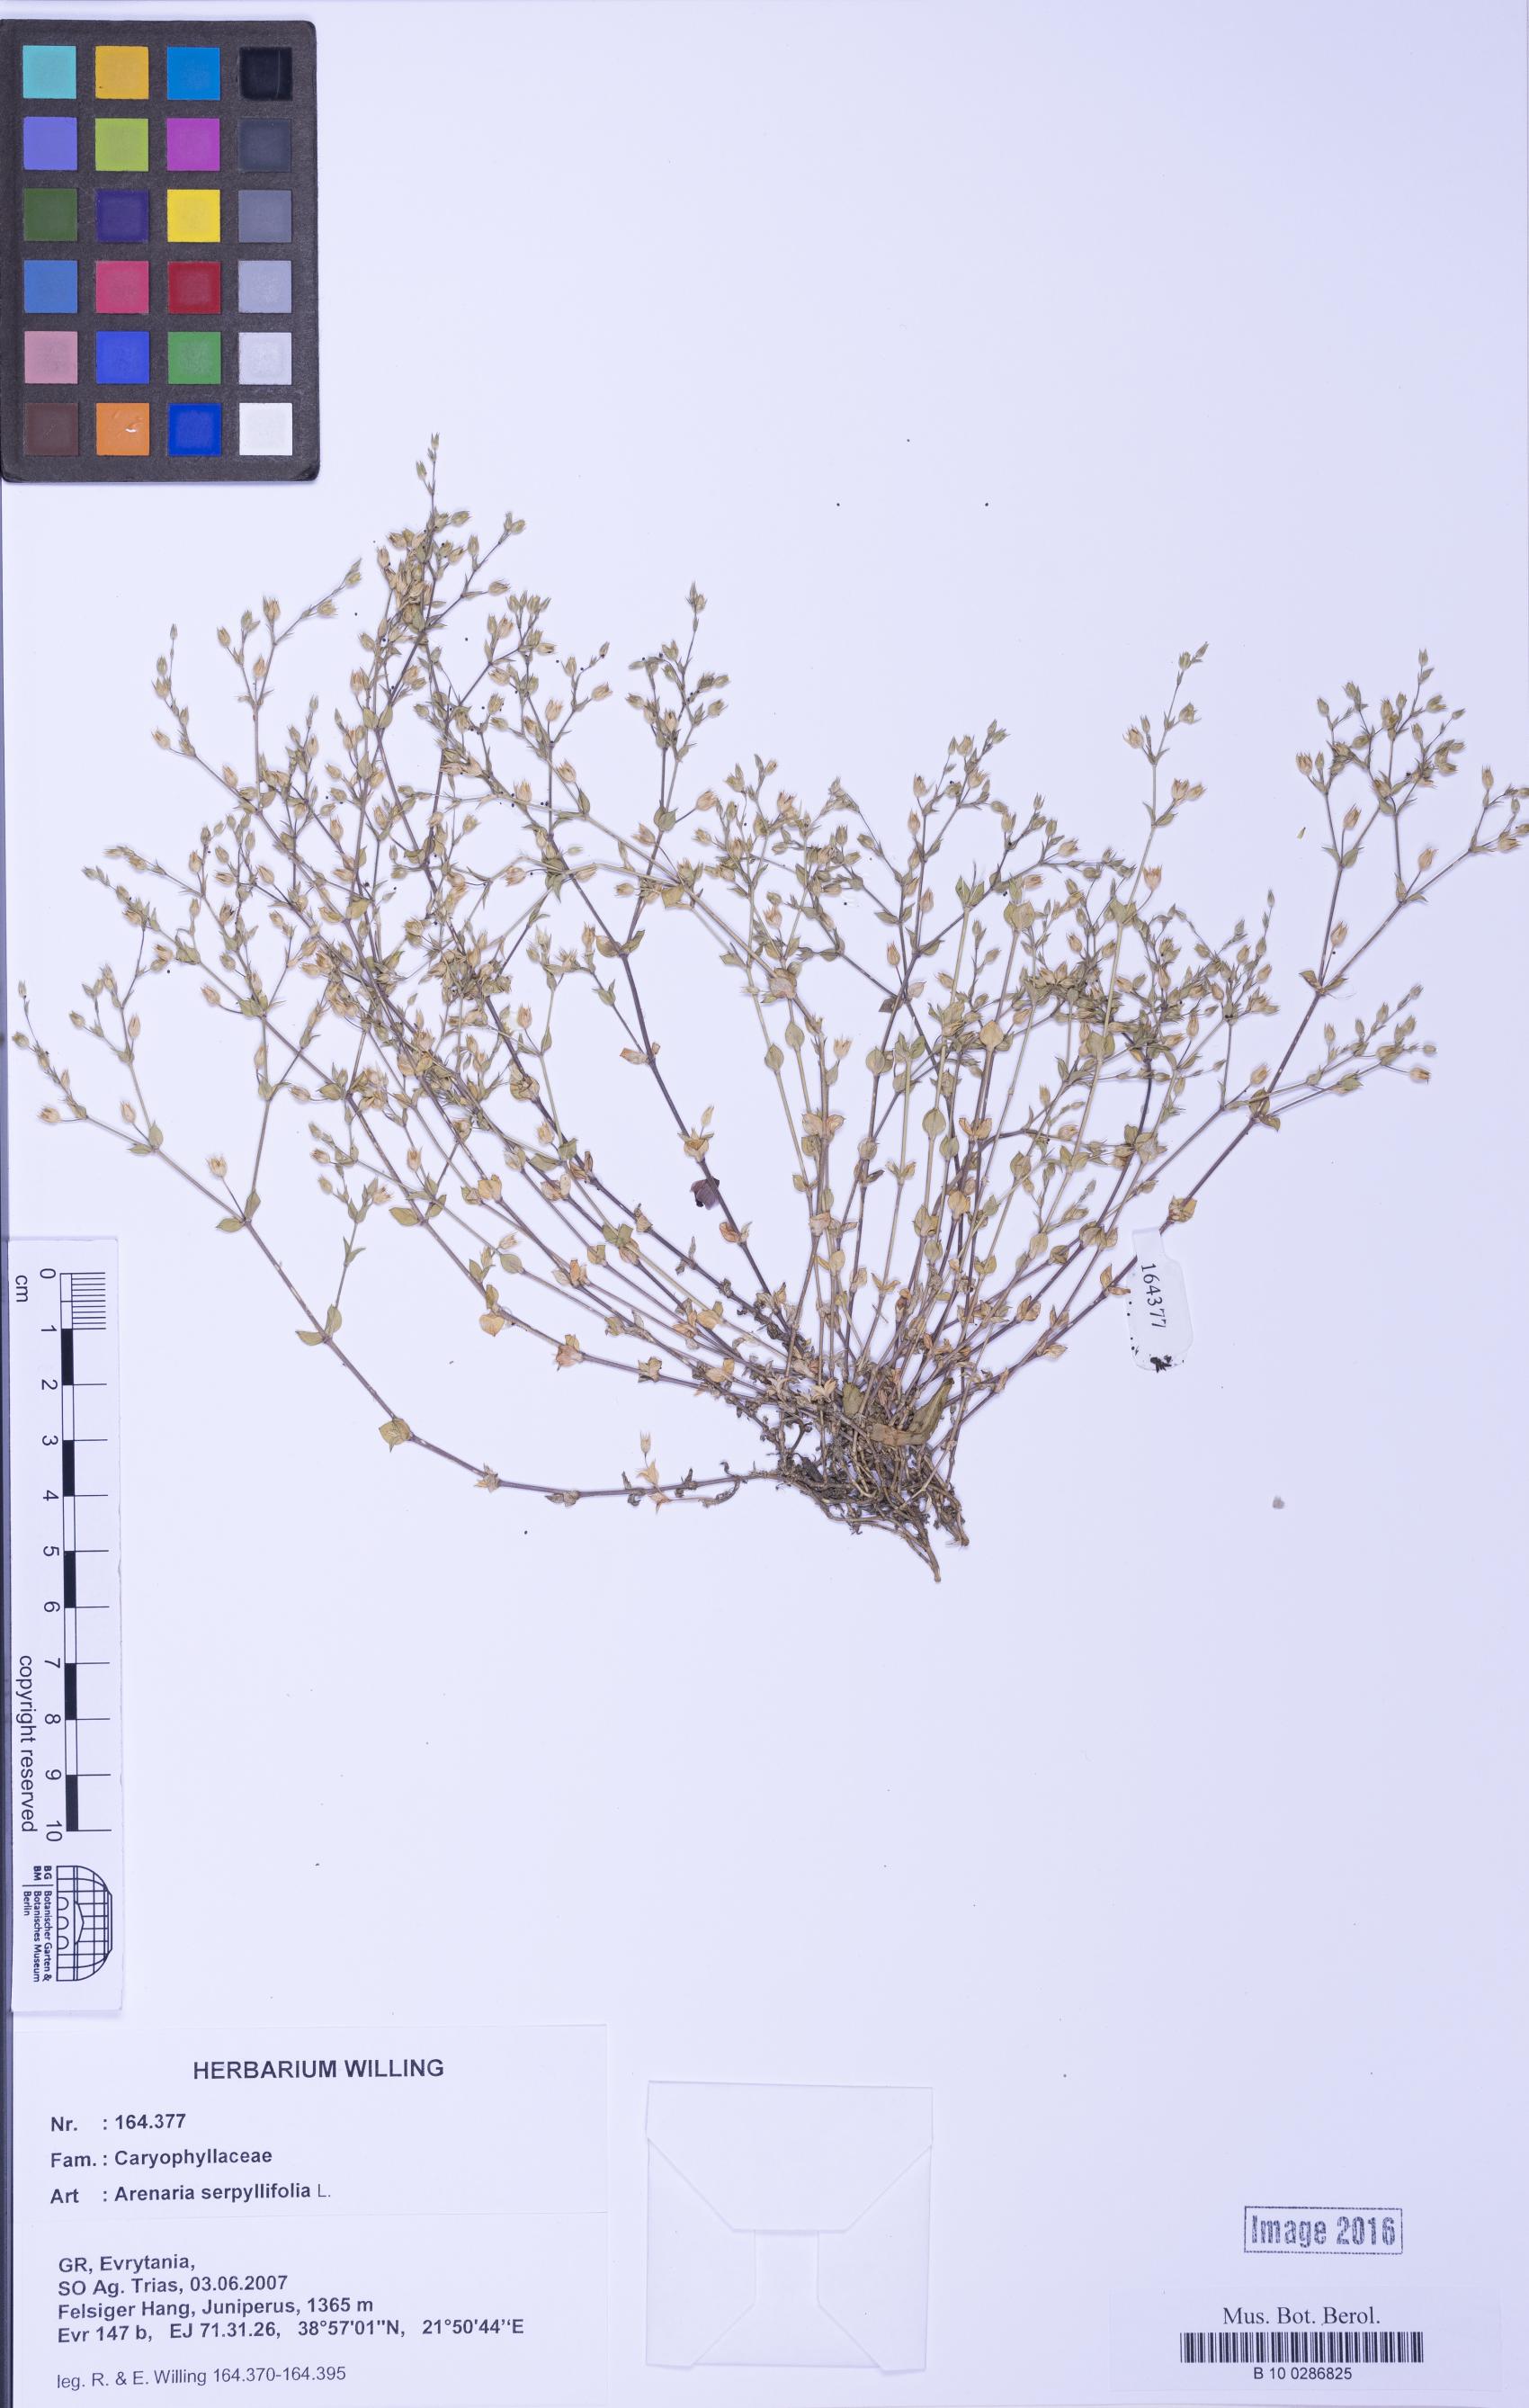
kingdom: Plantae
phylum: Tracheophyta
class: Magnoliopsida
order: Caryophyllales
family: Caryophyllaceae
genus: Arenaria
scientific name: Arenaria serpyllifolia
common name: Thyme-leaved sandwort
